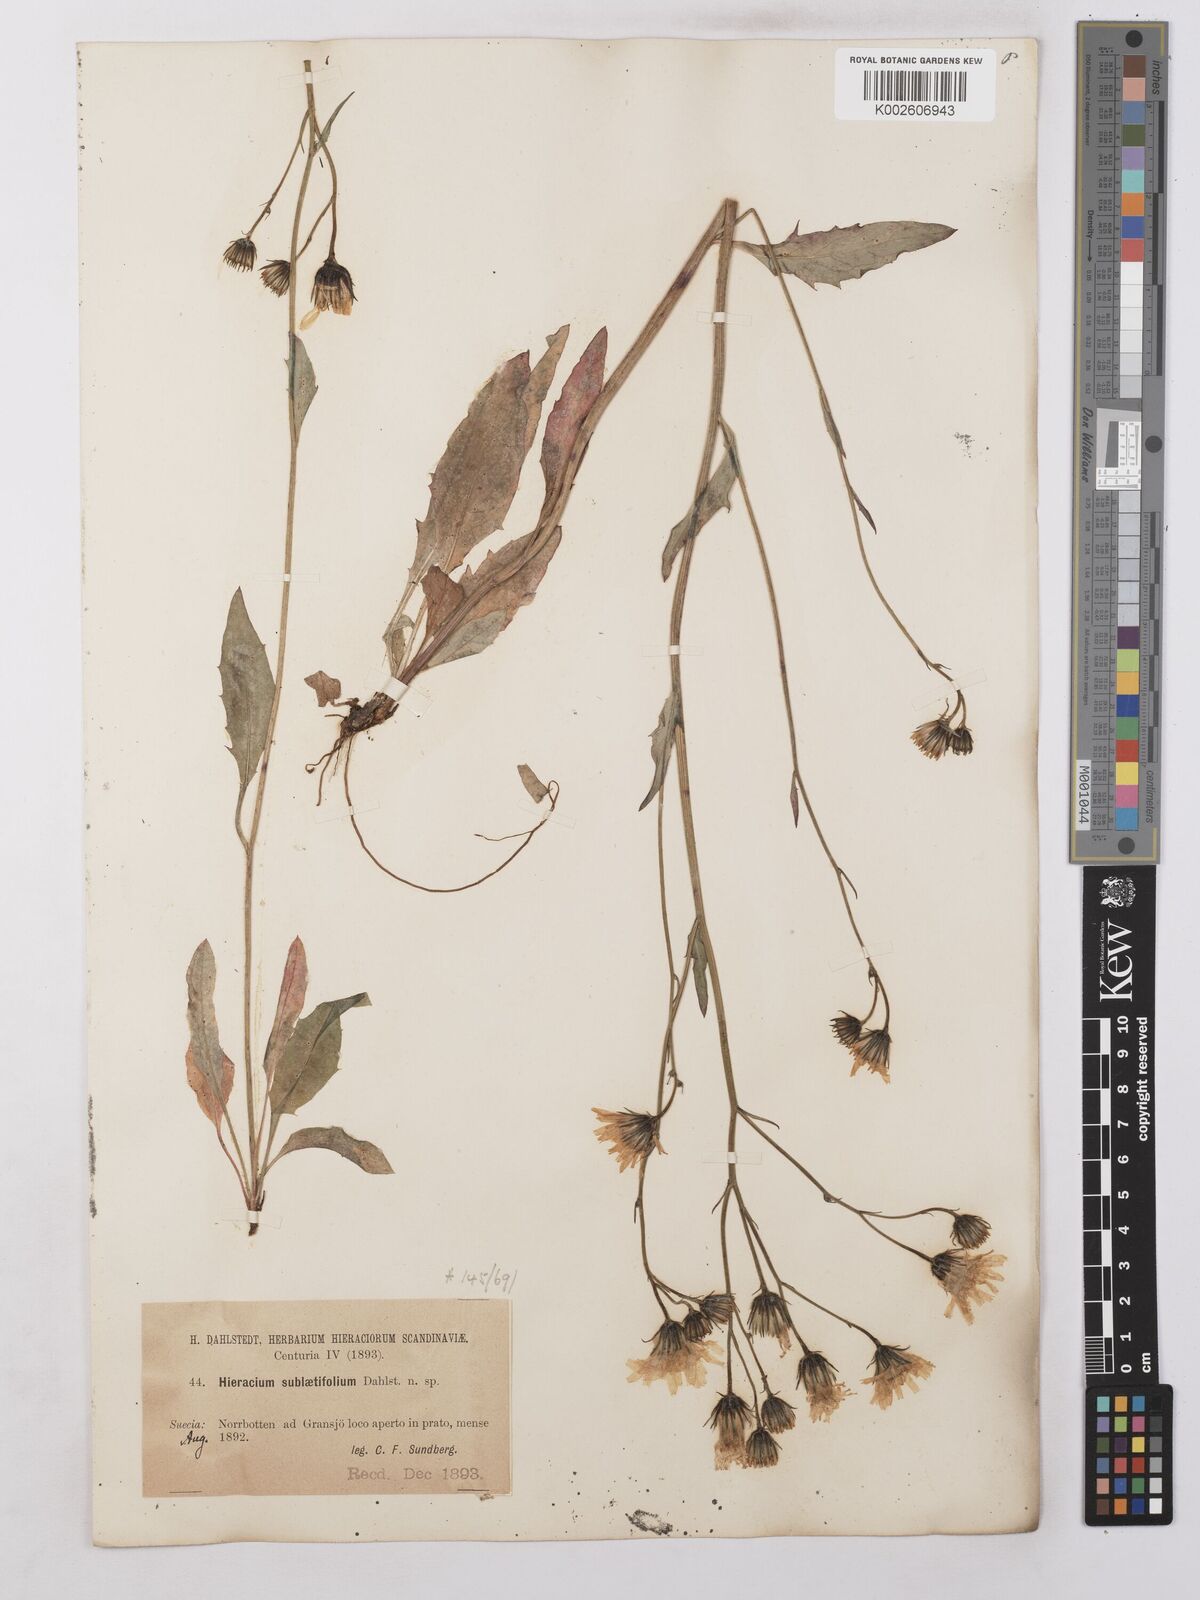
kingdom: Plantae
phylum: Tracheophyta
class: Magnoliopsida
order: Asterales
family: Asteraceae
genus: Hieracium
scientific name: Hieracium levicaule
